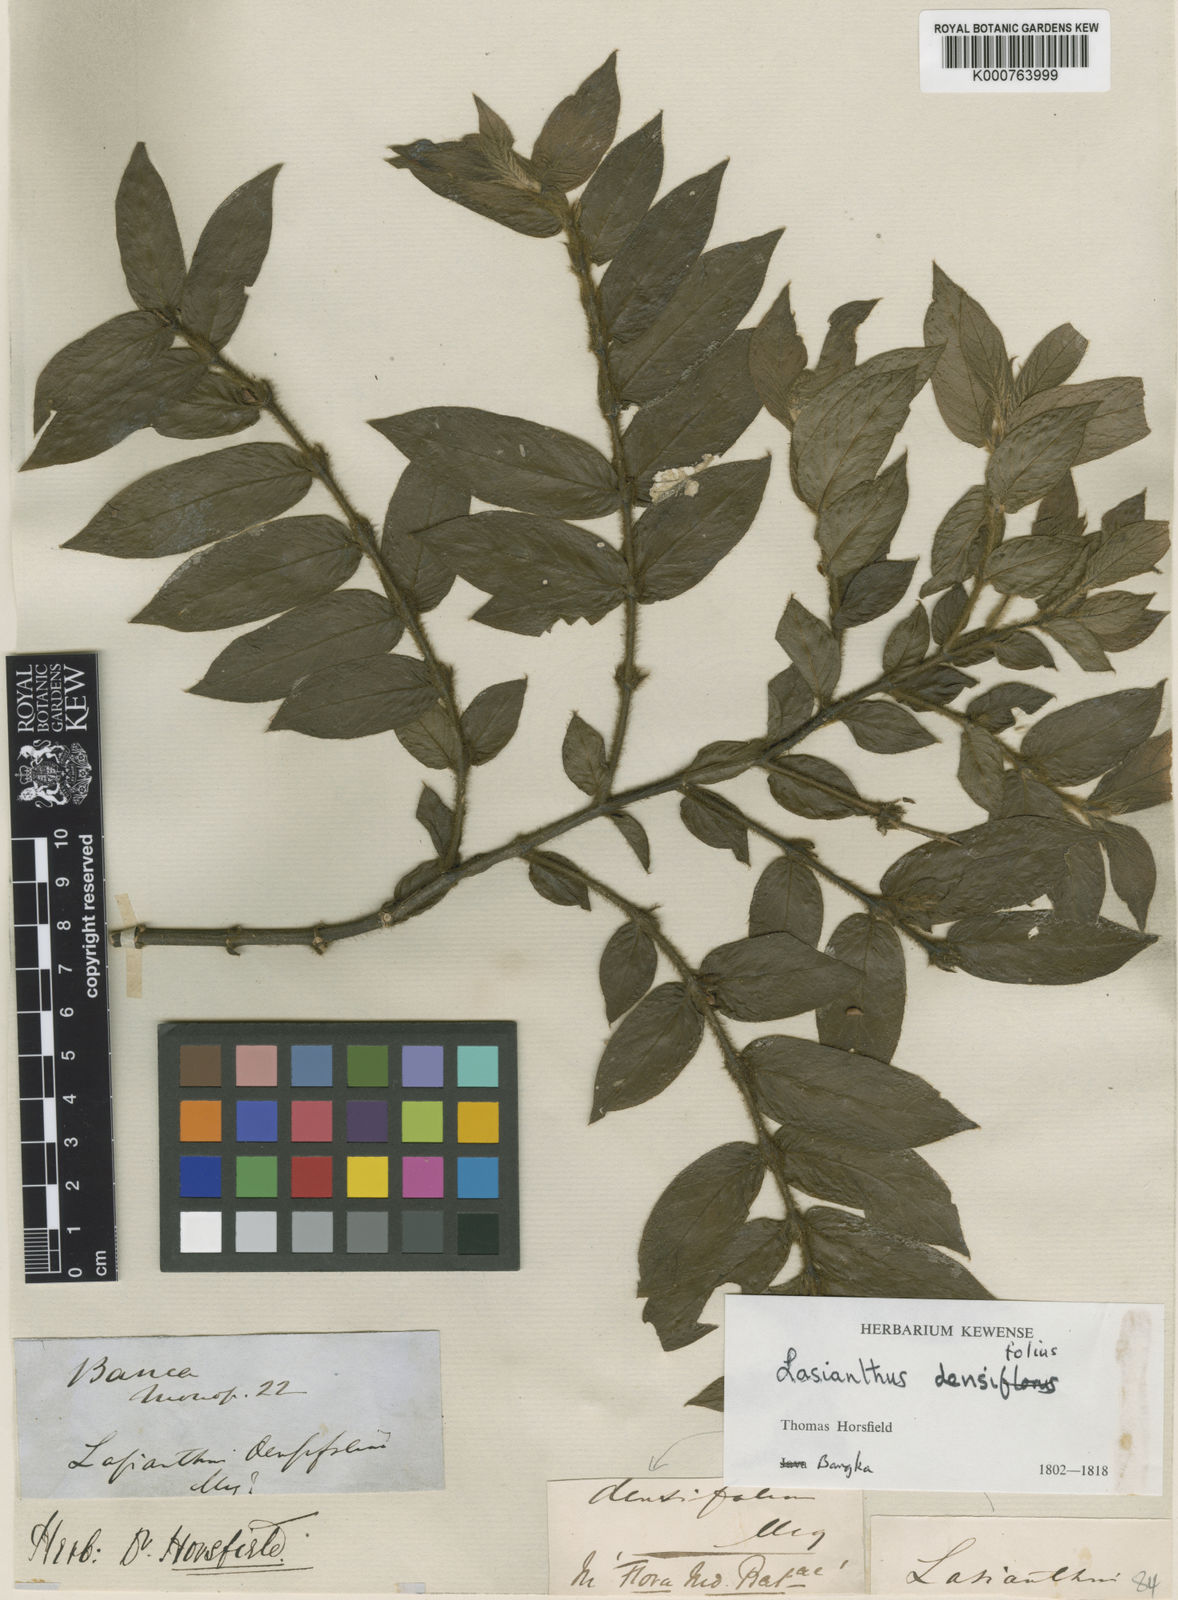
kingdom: Plantae
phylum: Tracheophyta
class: Magnoliopsida
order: Gentianales
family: Rubiaceae
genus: Lasianthus
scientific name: Lasianthus attenuatus
